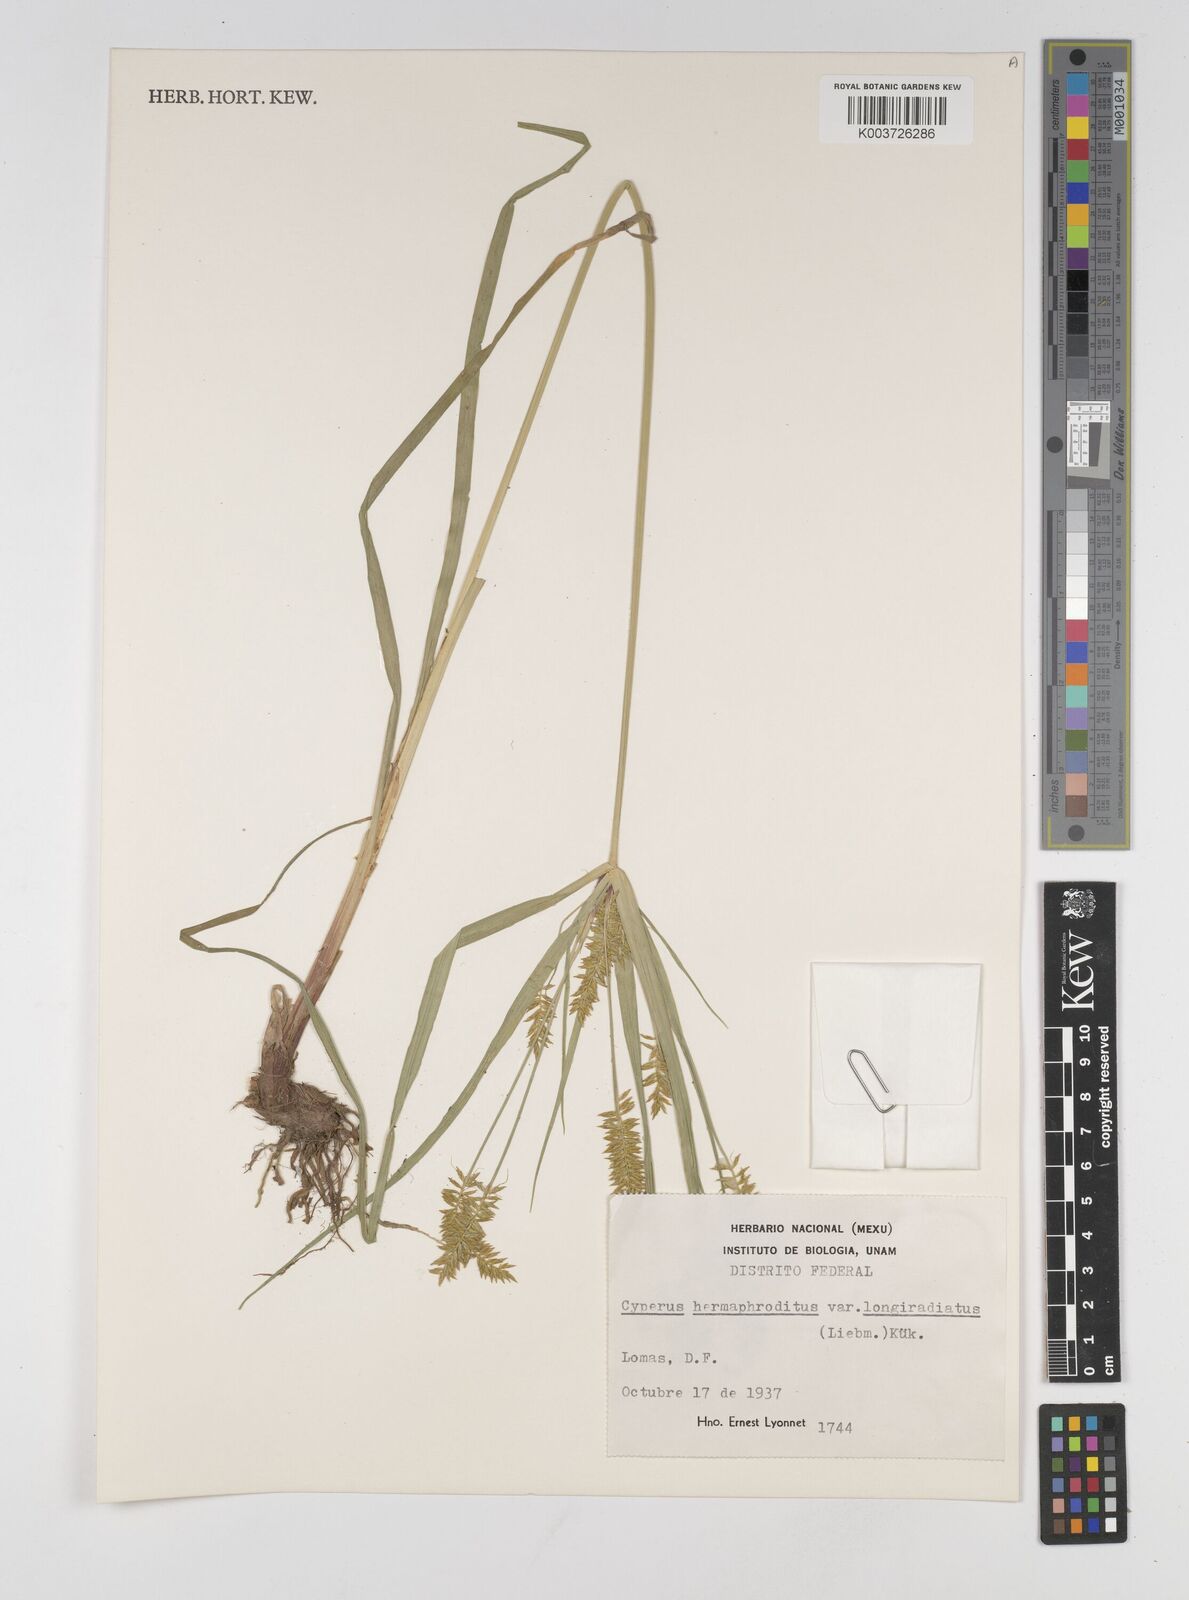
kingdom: Plantae
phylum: Tracheophyta
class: Liliopsida
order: Poales
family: Cyperaceae
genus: Cyperus
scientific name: Cyperus hermaphroditus
